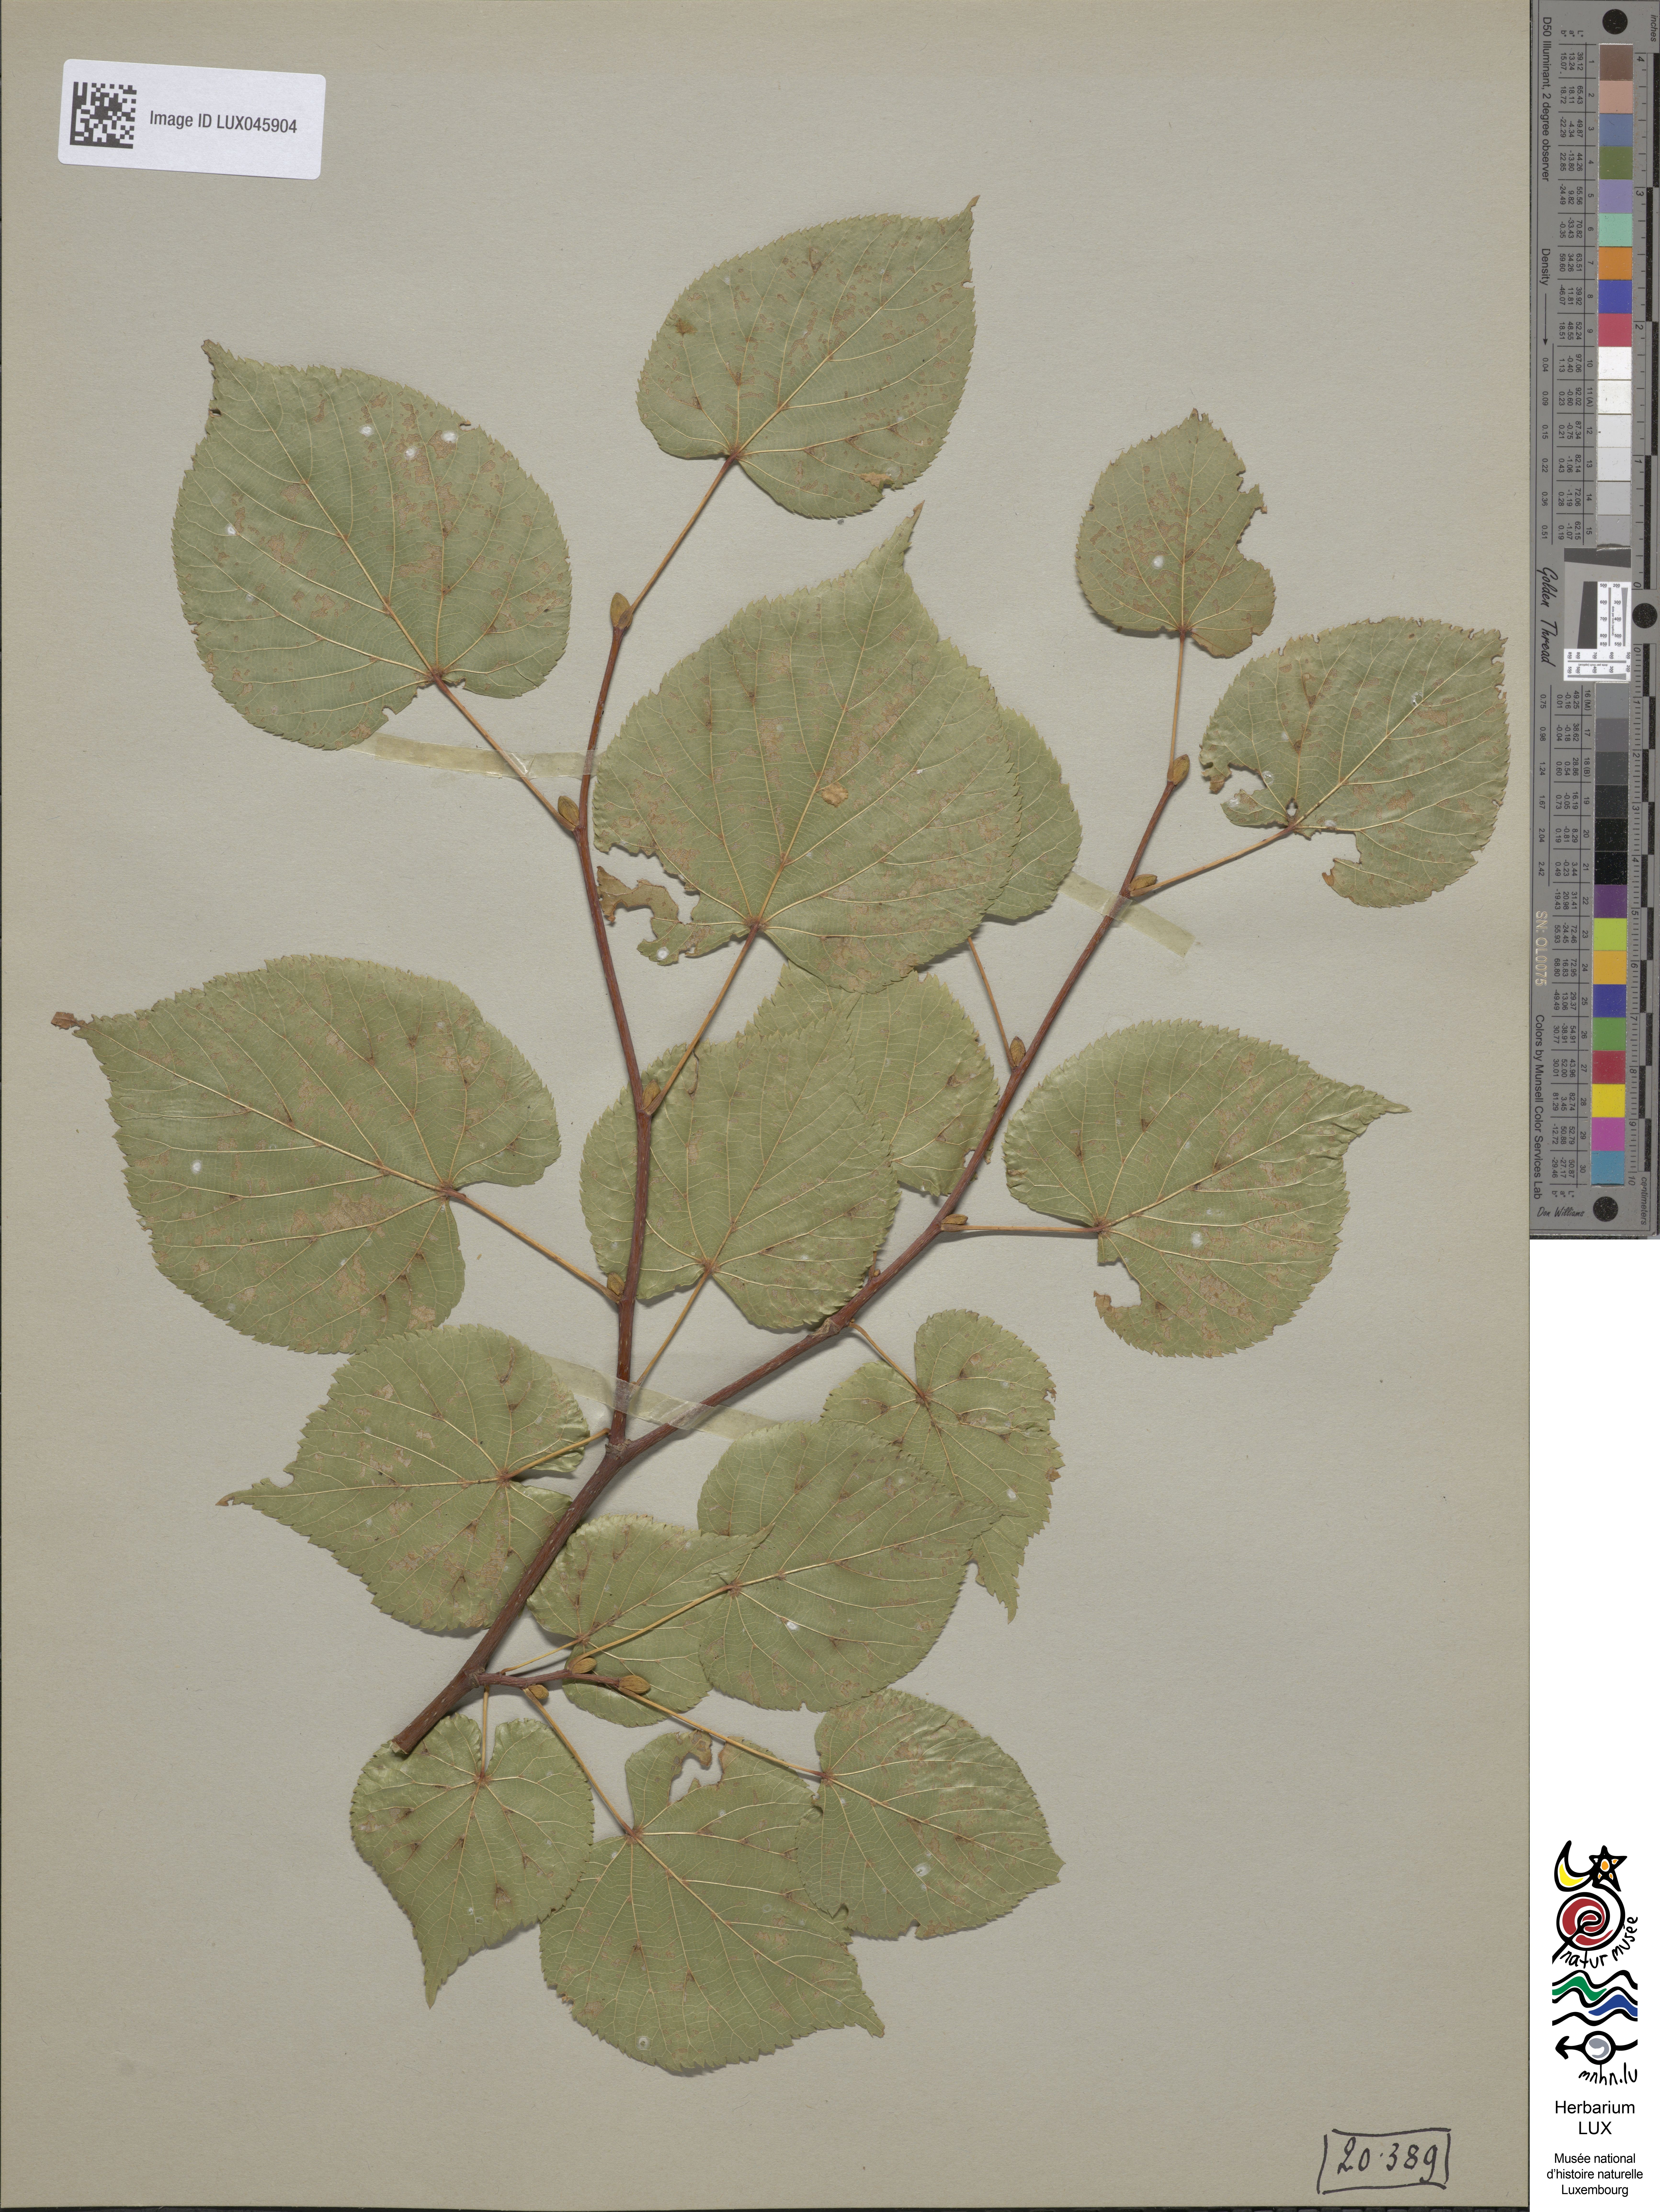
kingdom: Plantae
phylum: Tracheophyta
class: Magnoliopsida
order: Malvales
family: Malvaceae
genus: Tilia
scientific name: Tilia cordata
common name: Small-leaved lime
